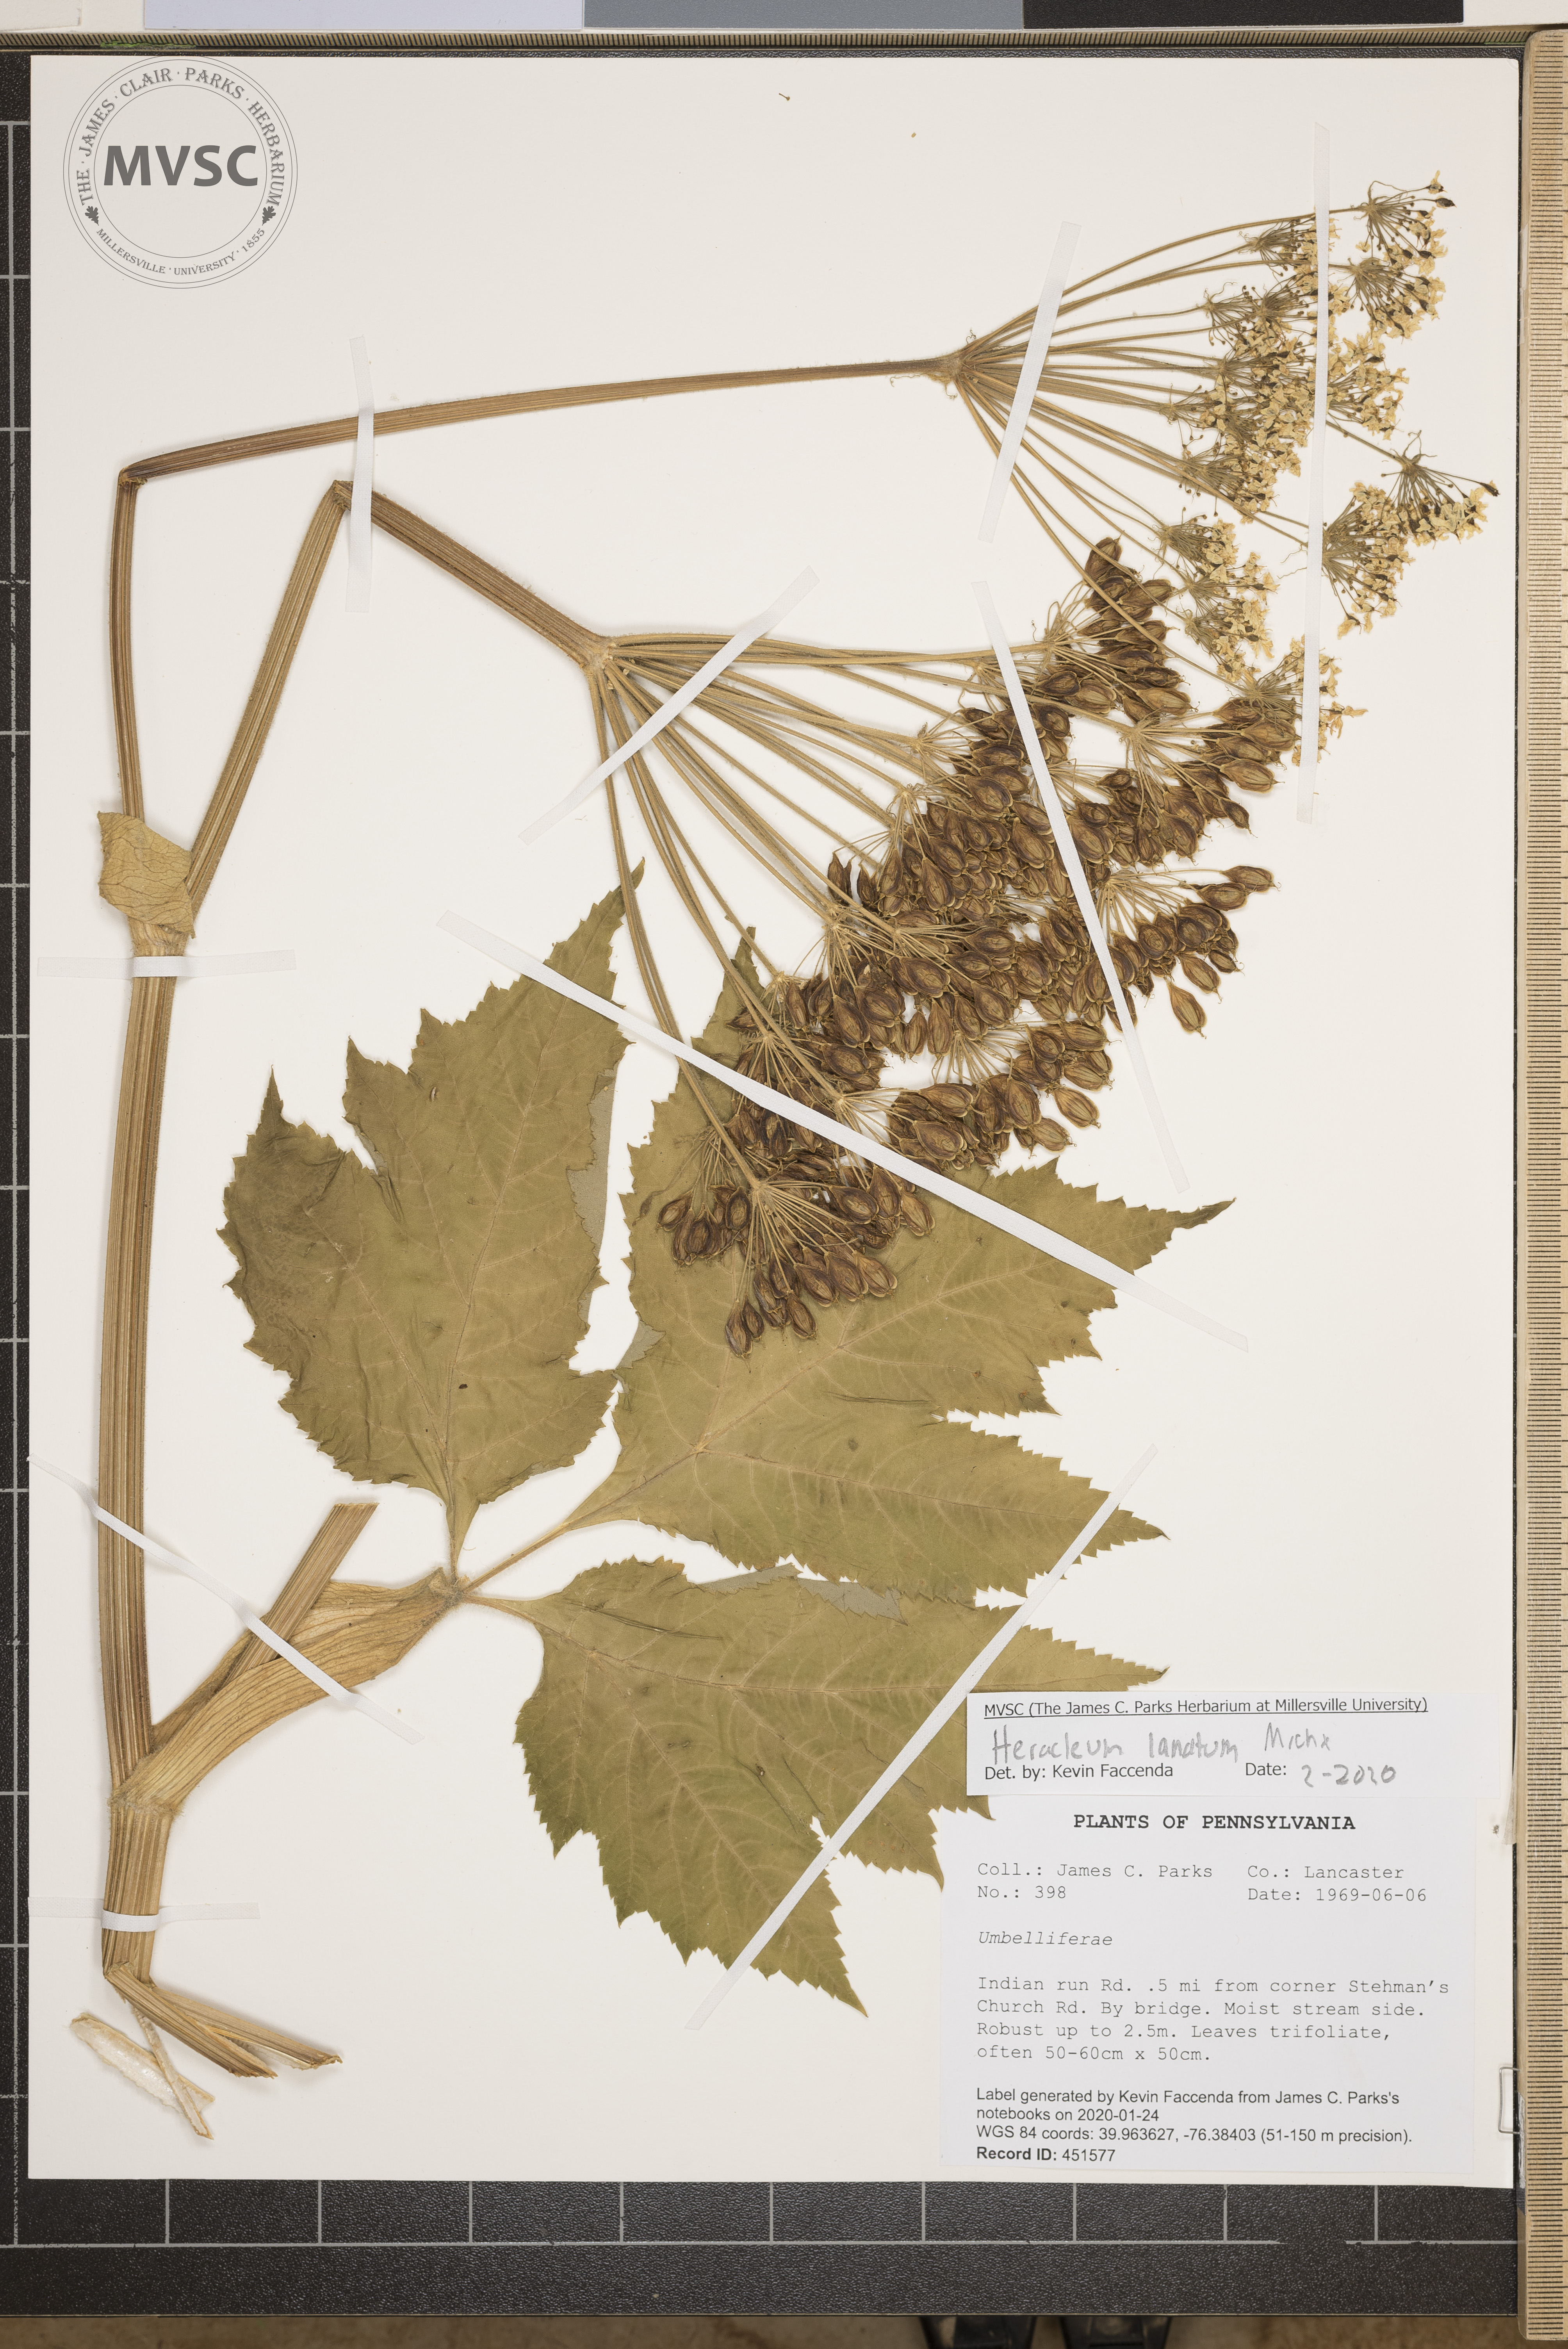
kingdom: Plantae
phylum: Tracheophyta
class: Magnoliopsida
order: Apiales
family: Apiaceae
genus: Heracleum
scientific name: Heracleum maximum
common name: American cow parsnip
